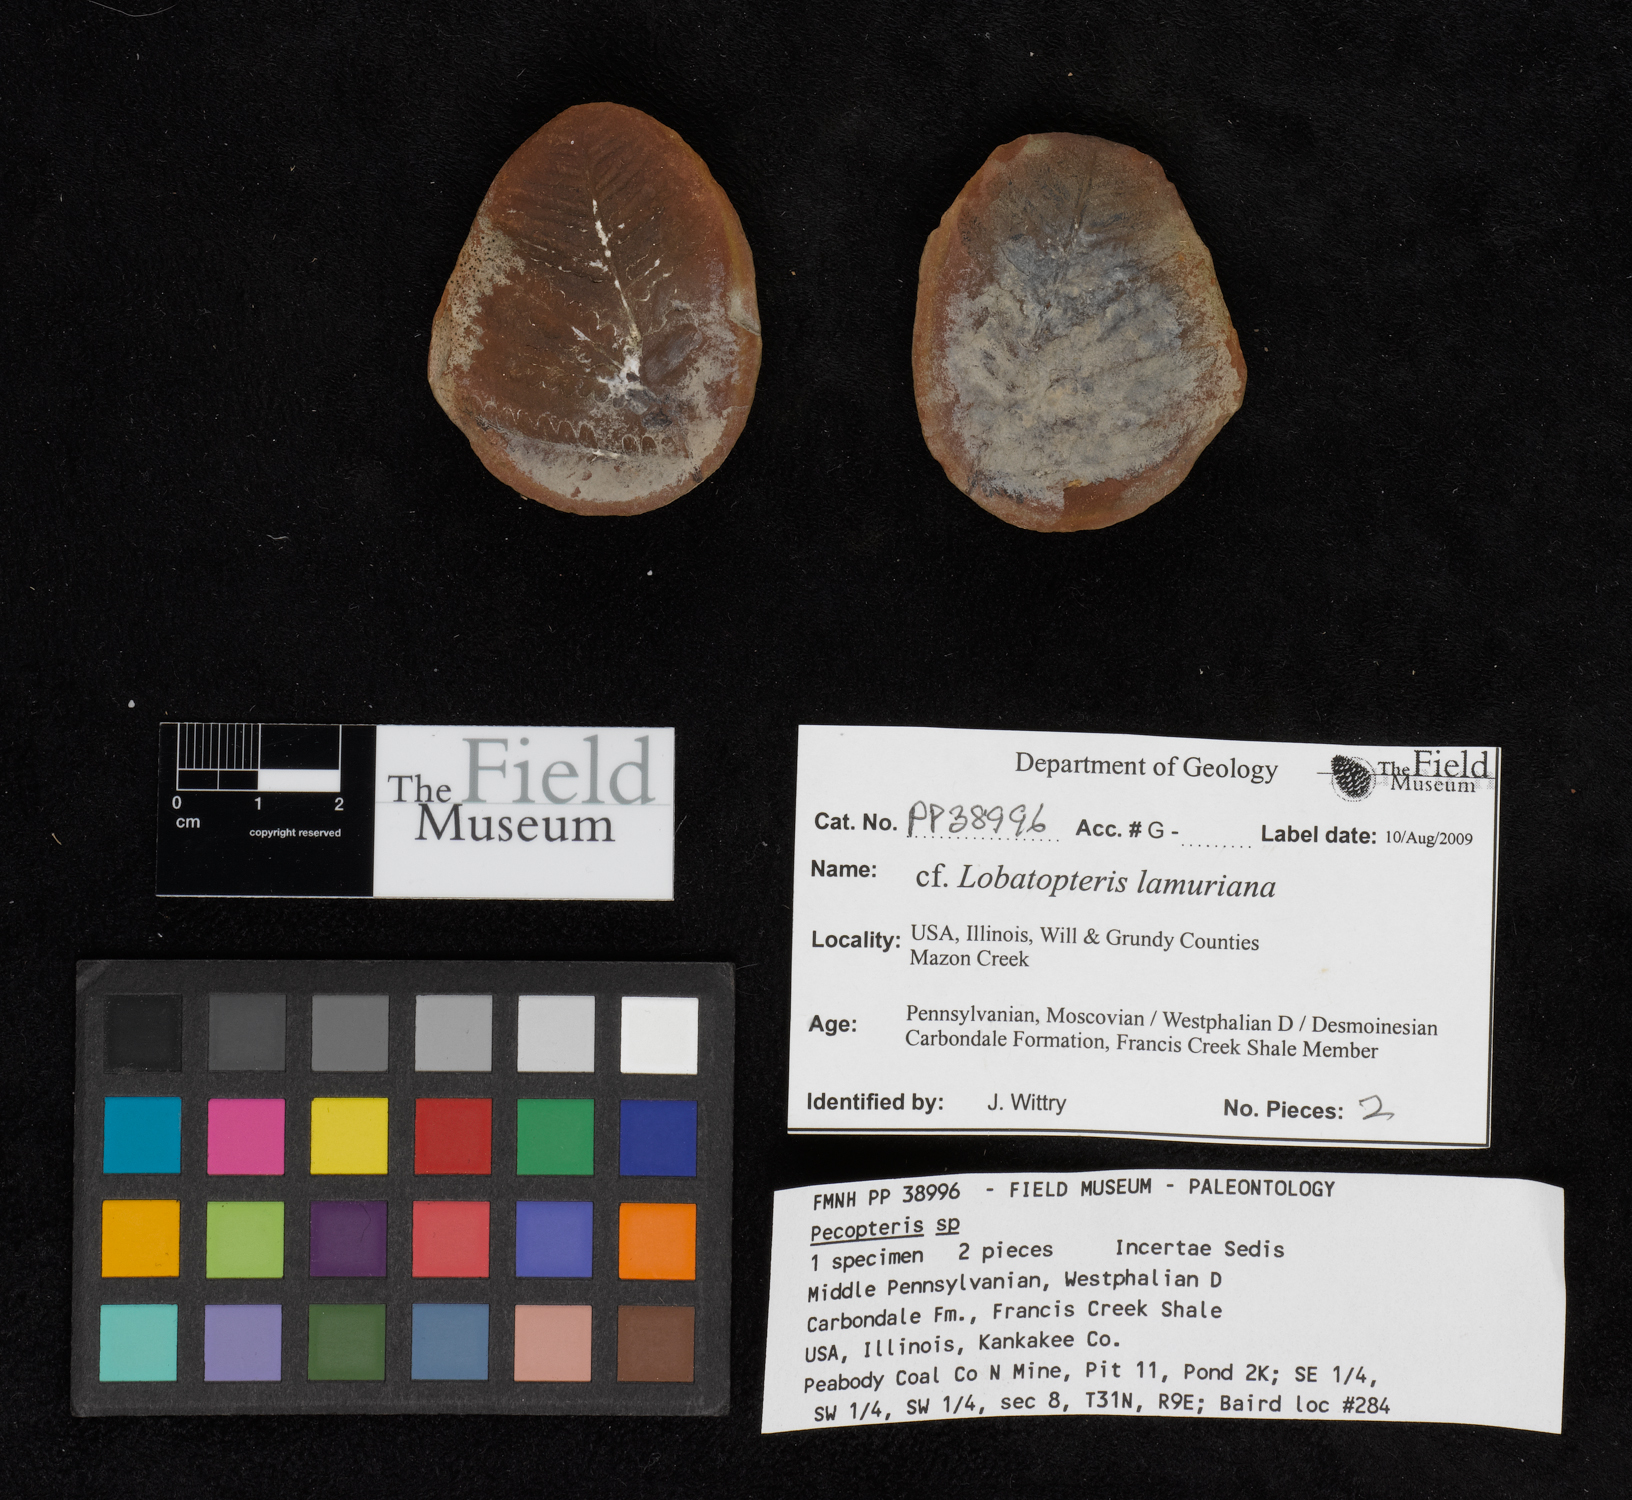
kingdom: Plantae
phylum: Tracheophyta
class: Polypodiopsida
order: Marattiales
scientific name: Marattiales
